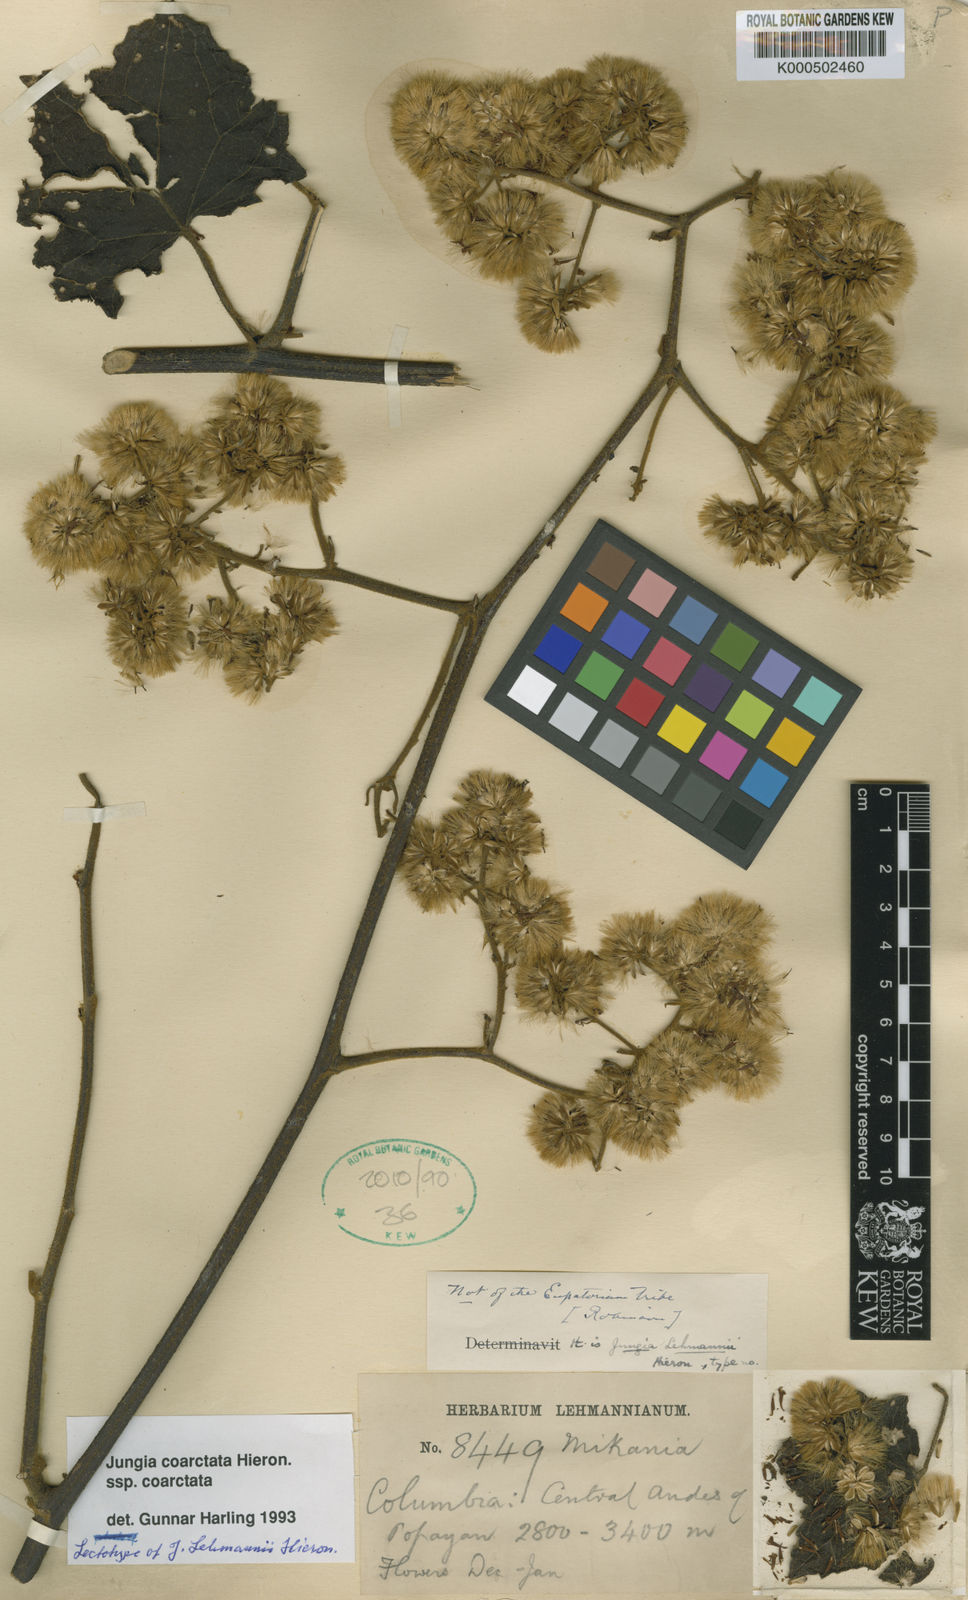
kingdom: Plantae
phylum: Tracheophyta
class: Magnoliopsida
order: Asterales
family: Asteraceae
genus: Jungia
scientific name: Jungia coarctata
